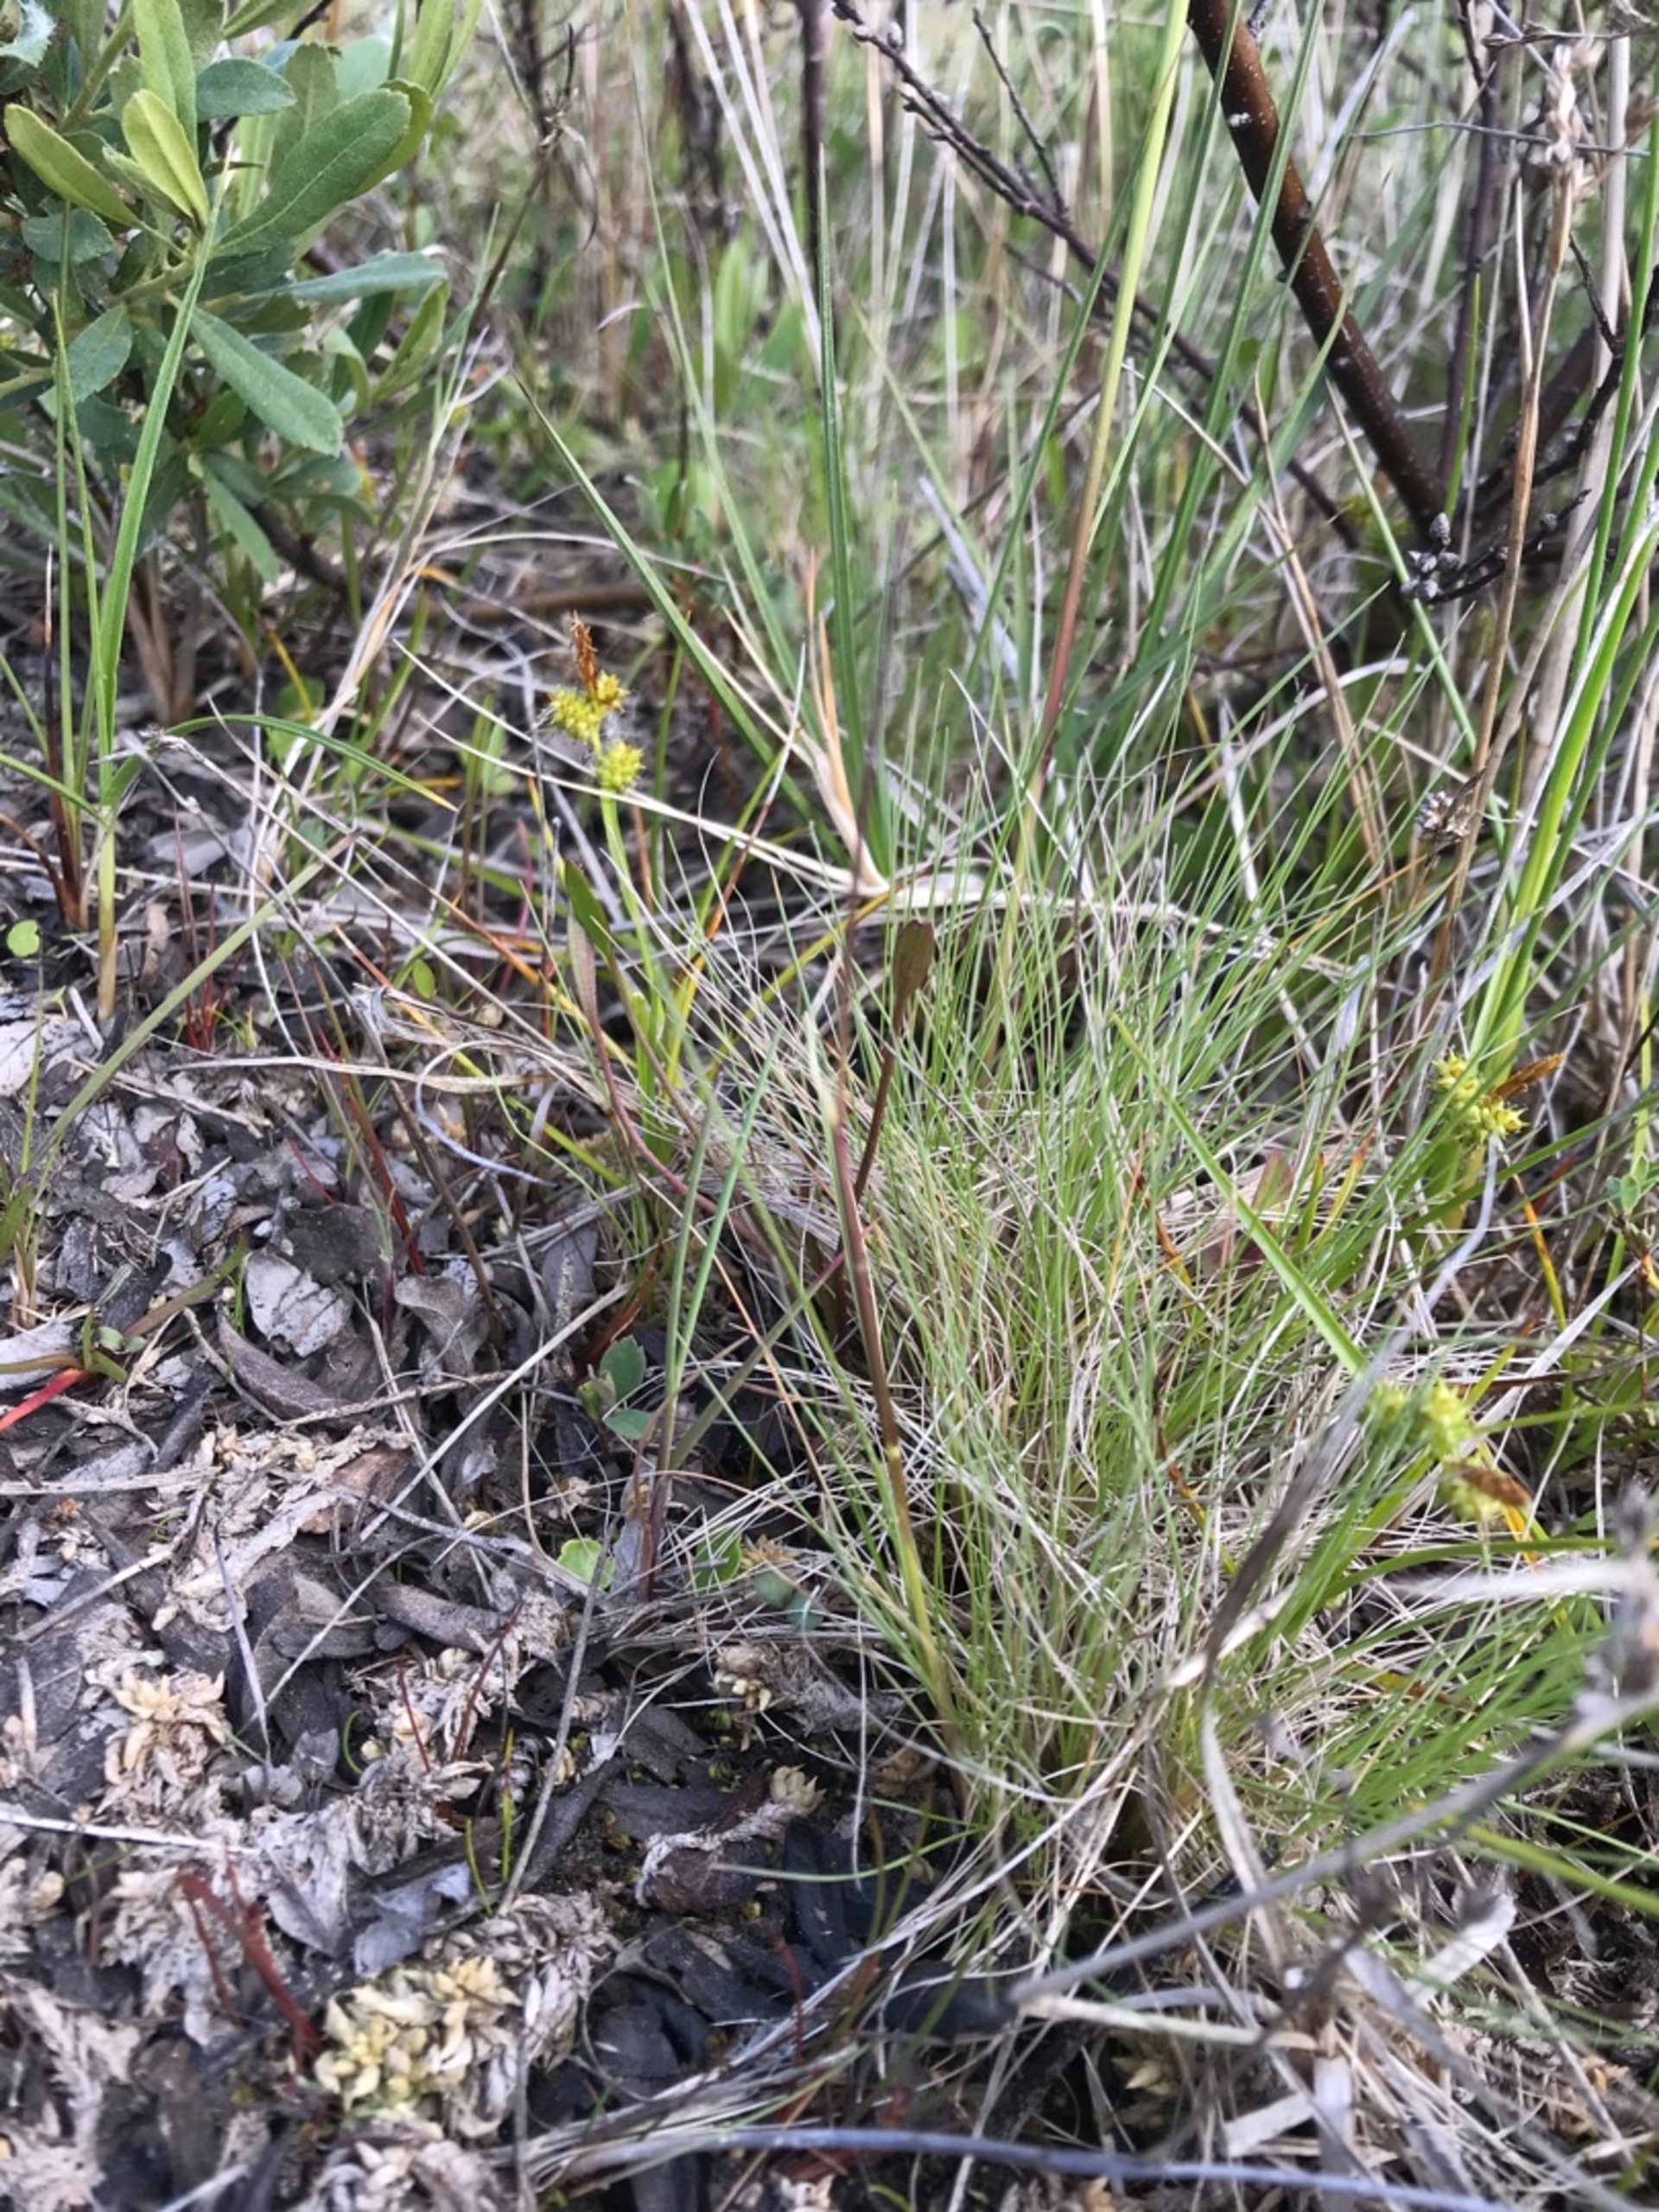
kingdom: Plantae
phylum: Tracheophyta
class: Liliopsida
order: Poales
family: Poaceae
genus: Deschampsia
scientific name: Deschampsia setacea
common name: Fin bunke
